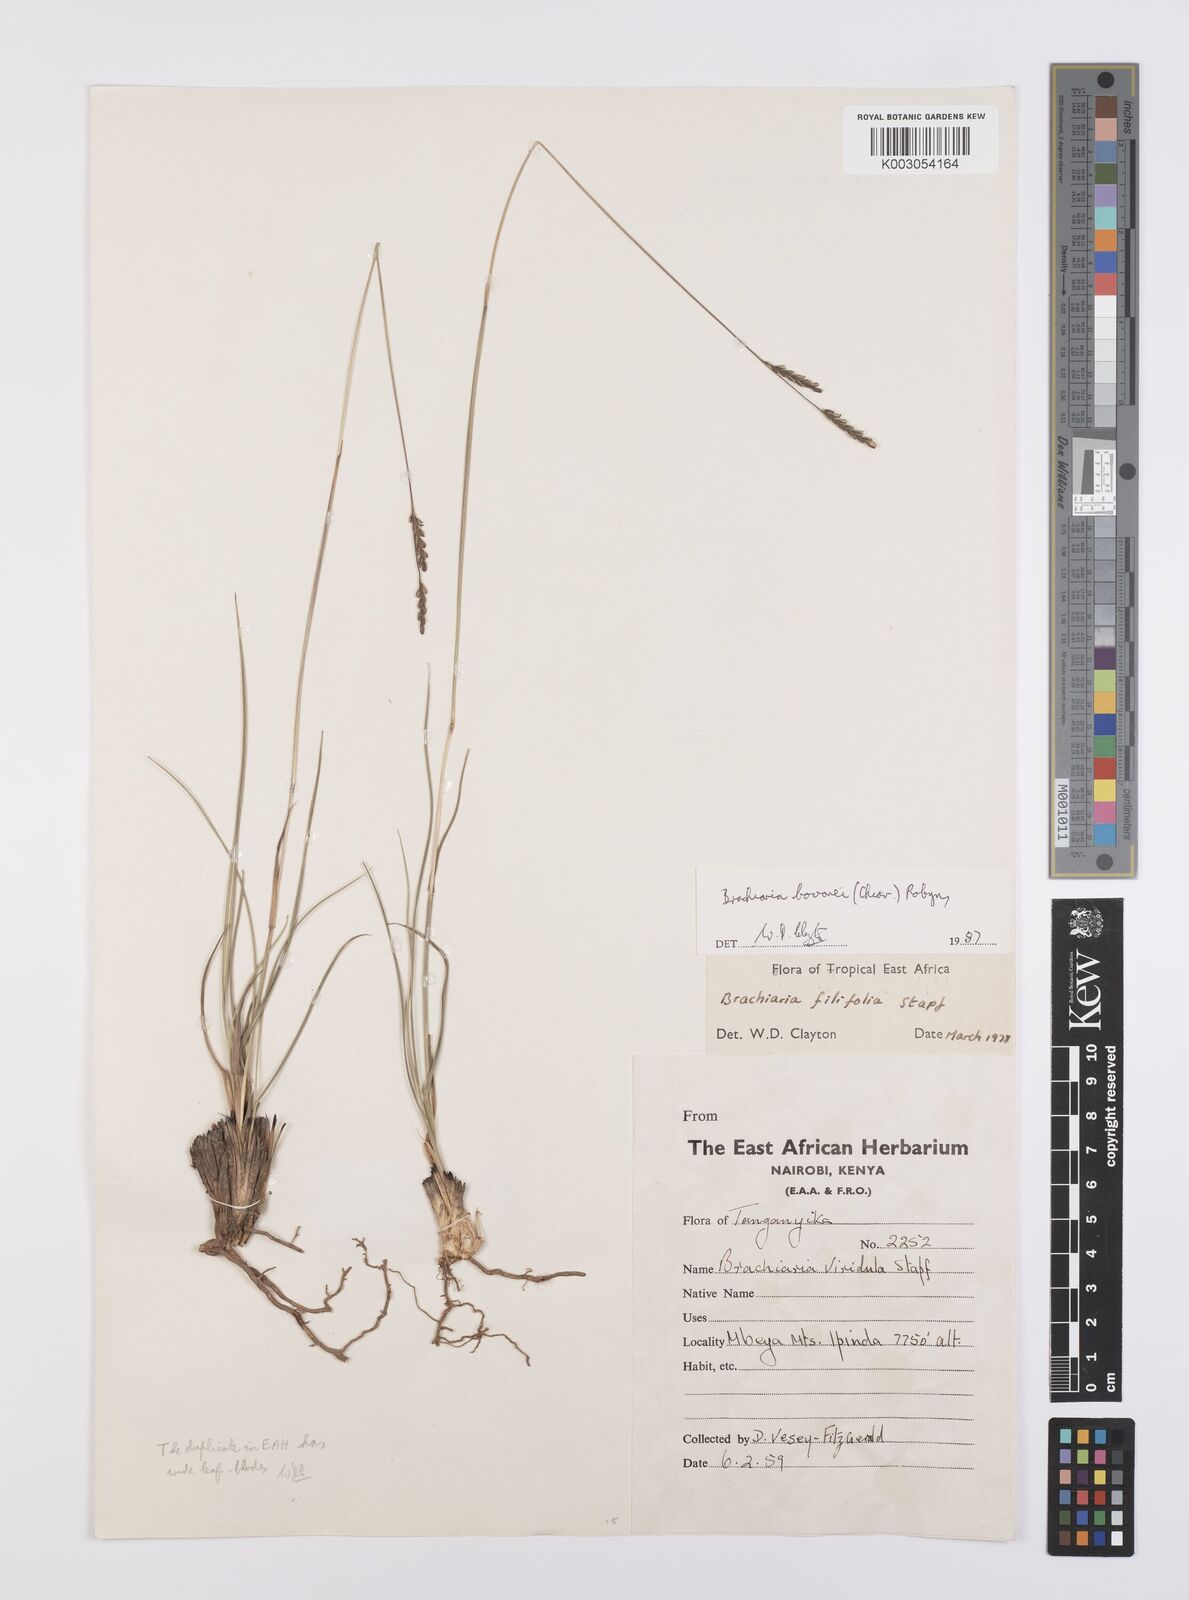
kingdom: Plantae
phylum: Tracheophyta
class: Liliopsida
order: Poales
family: Poaceae
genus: Urochloa
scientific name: Urochloa bovonei
